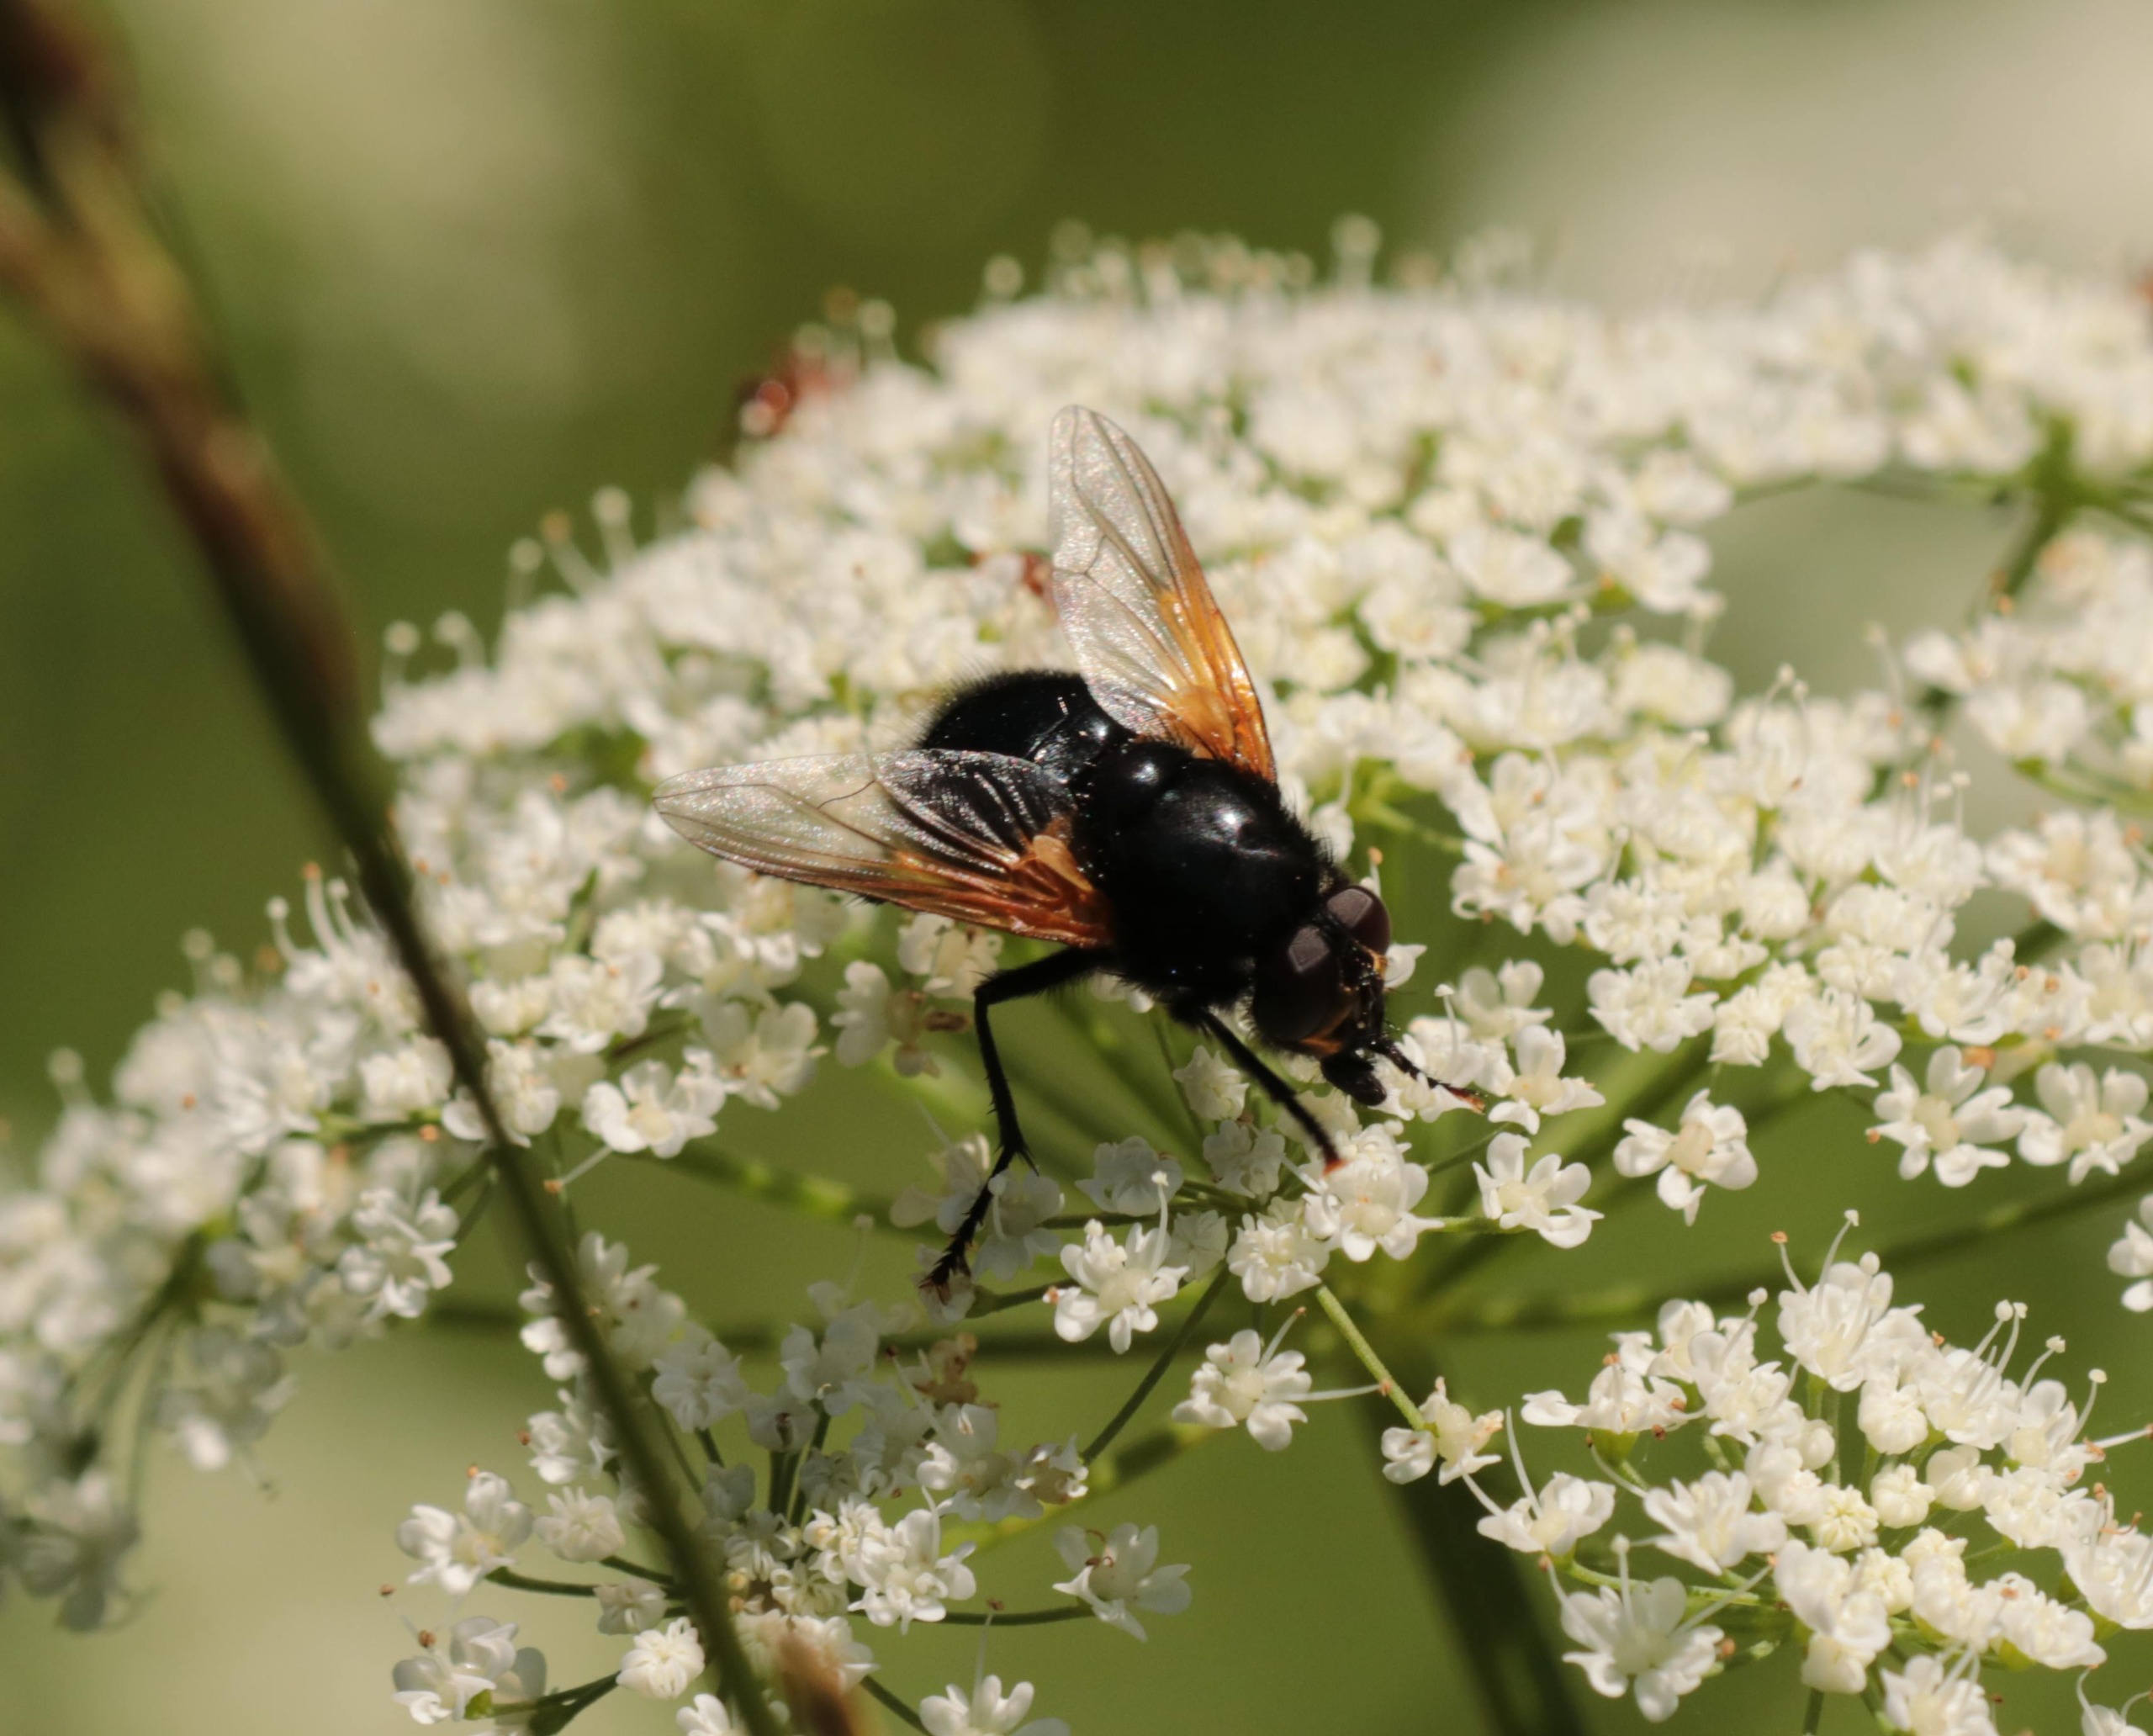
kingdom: Animalia
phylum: Arthropoda
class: Insecta
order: Diptera
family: Muscidae
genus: Mesembrina
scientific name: Mesembrina meridiana
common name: Gulvinget flue
